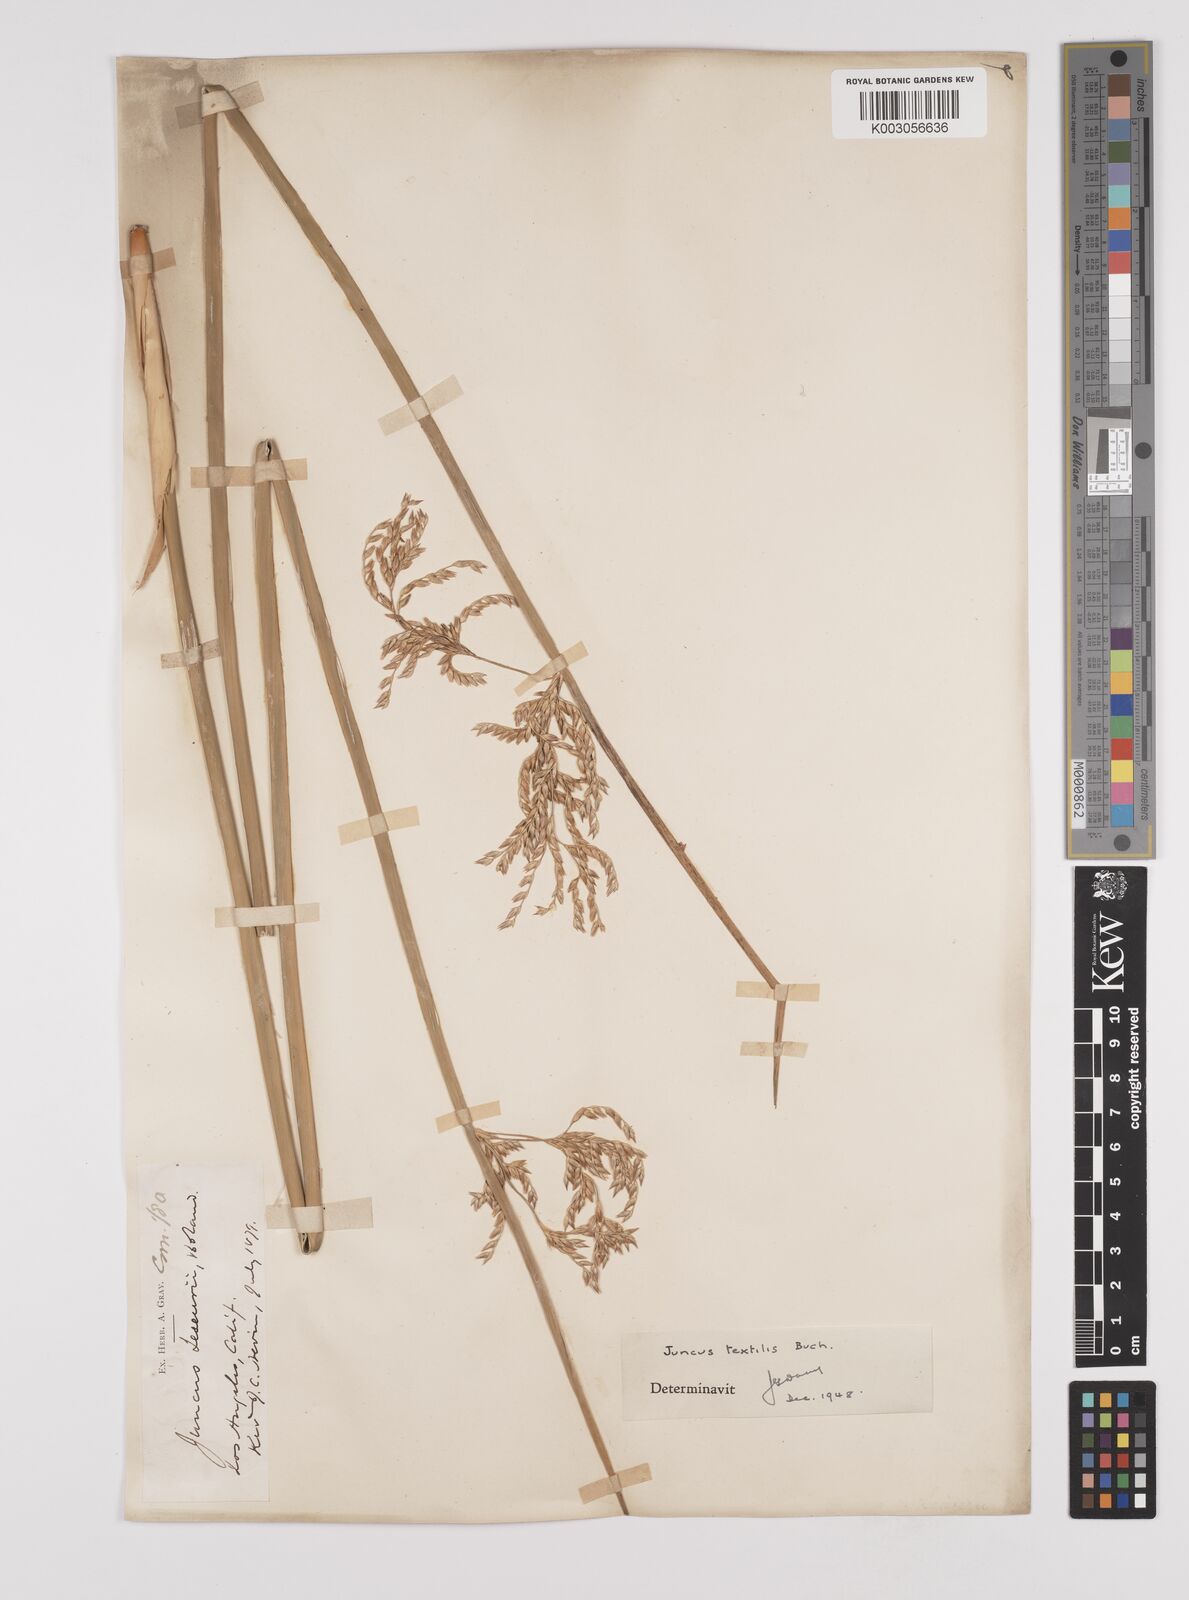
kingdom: Plantae
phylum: Tracheophyta
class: Liliopsida
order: Poales
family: Juncaceae
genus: Juncus
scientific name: Juncus textilis
